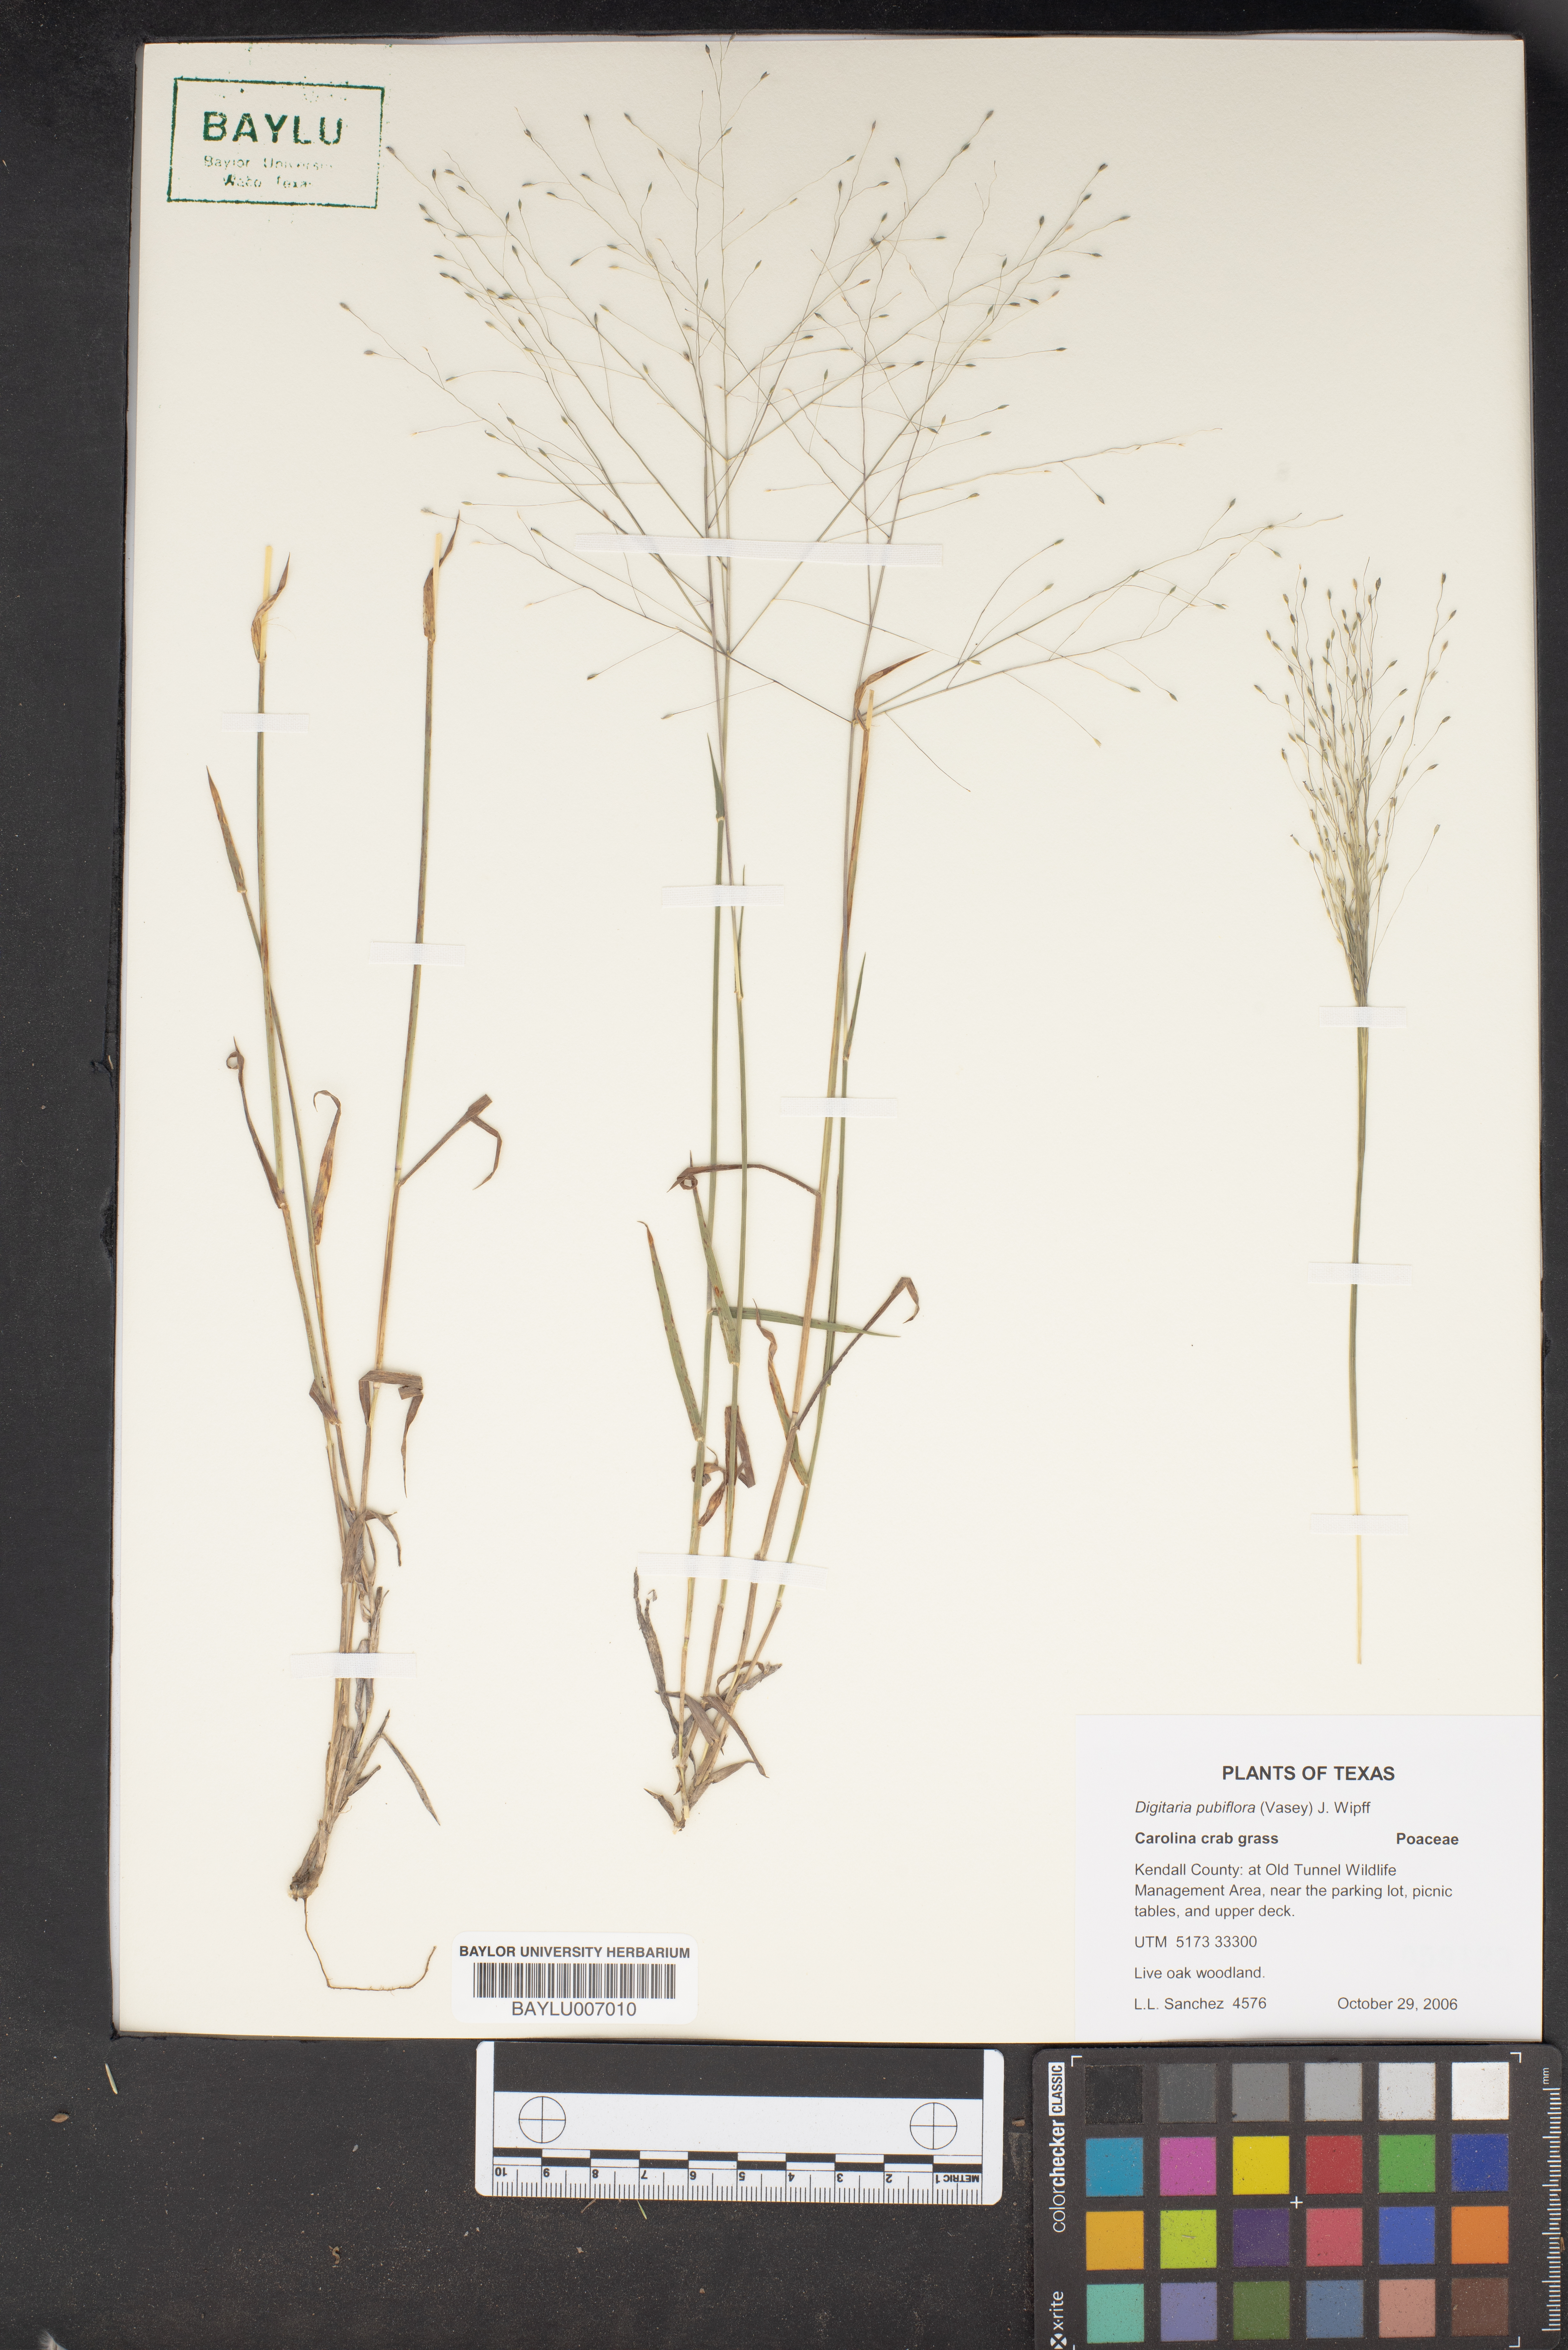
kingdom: Plantae
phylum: Tracheophyta
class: Liliopsida
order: Poales
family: Poaceae
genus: Digitaria
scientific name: Digitaria pubiflora
